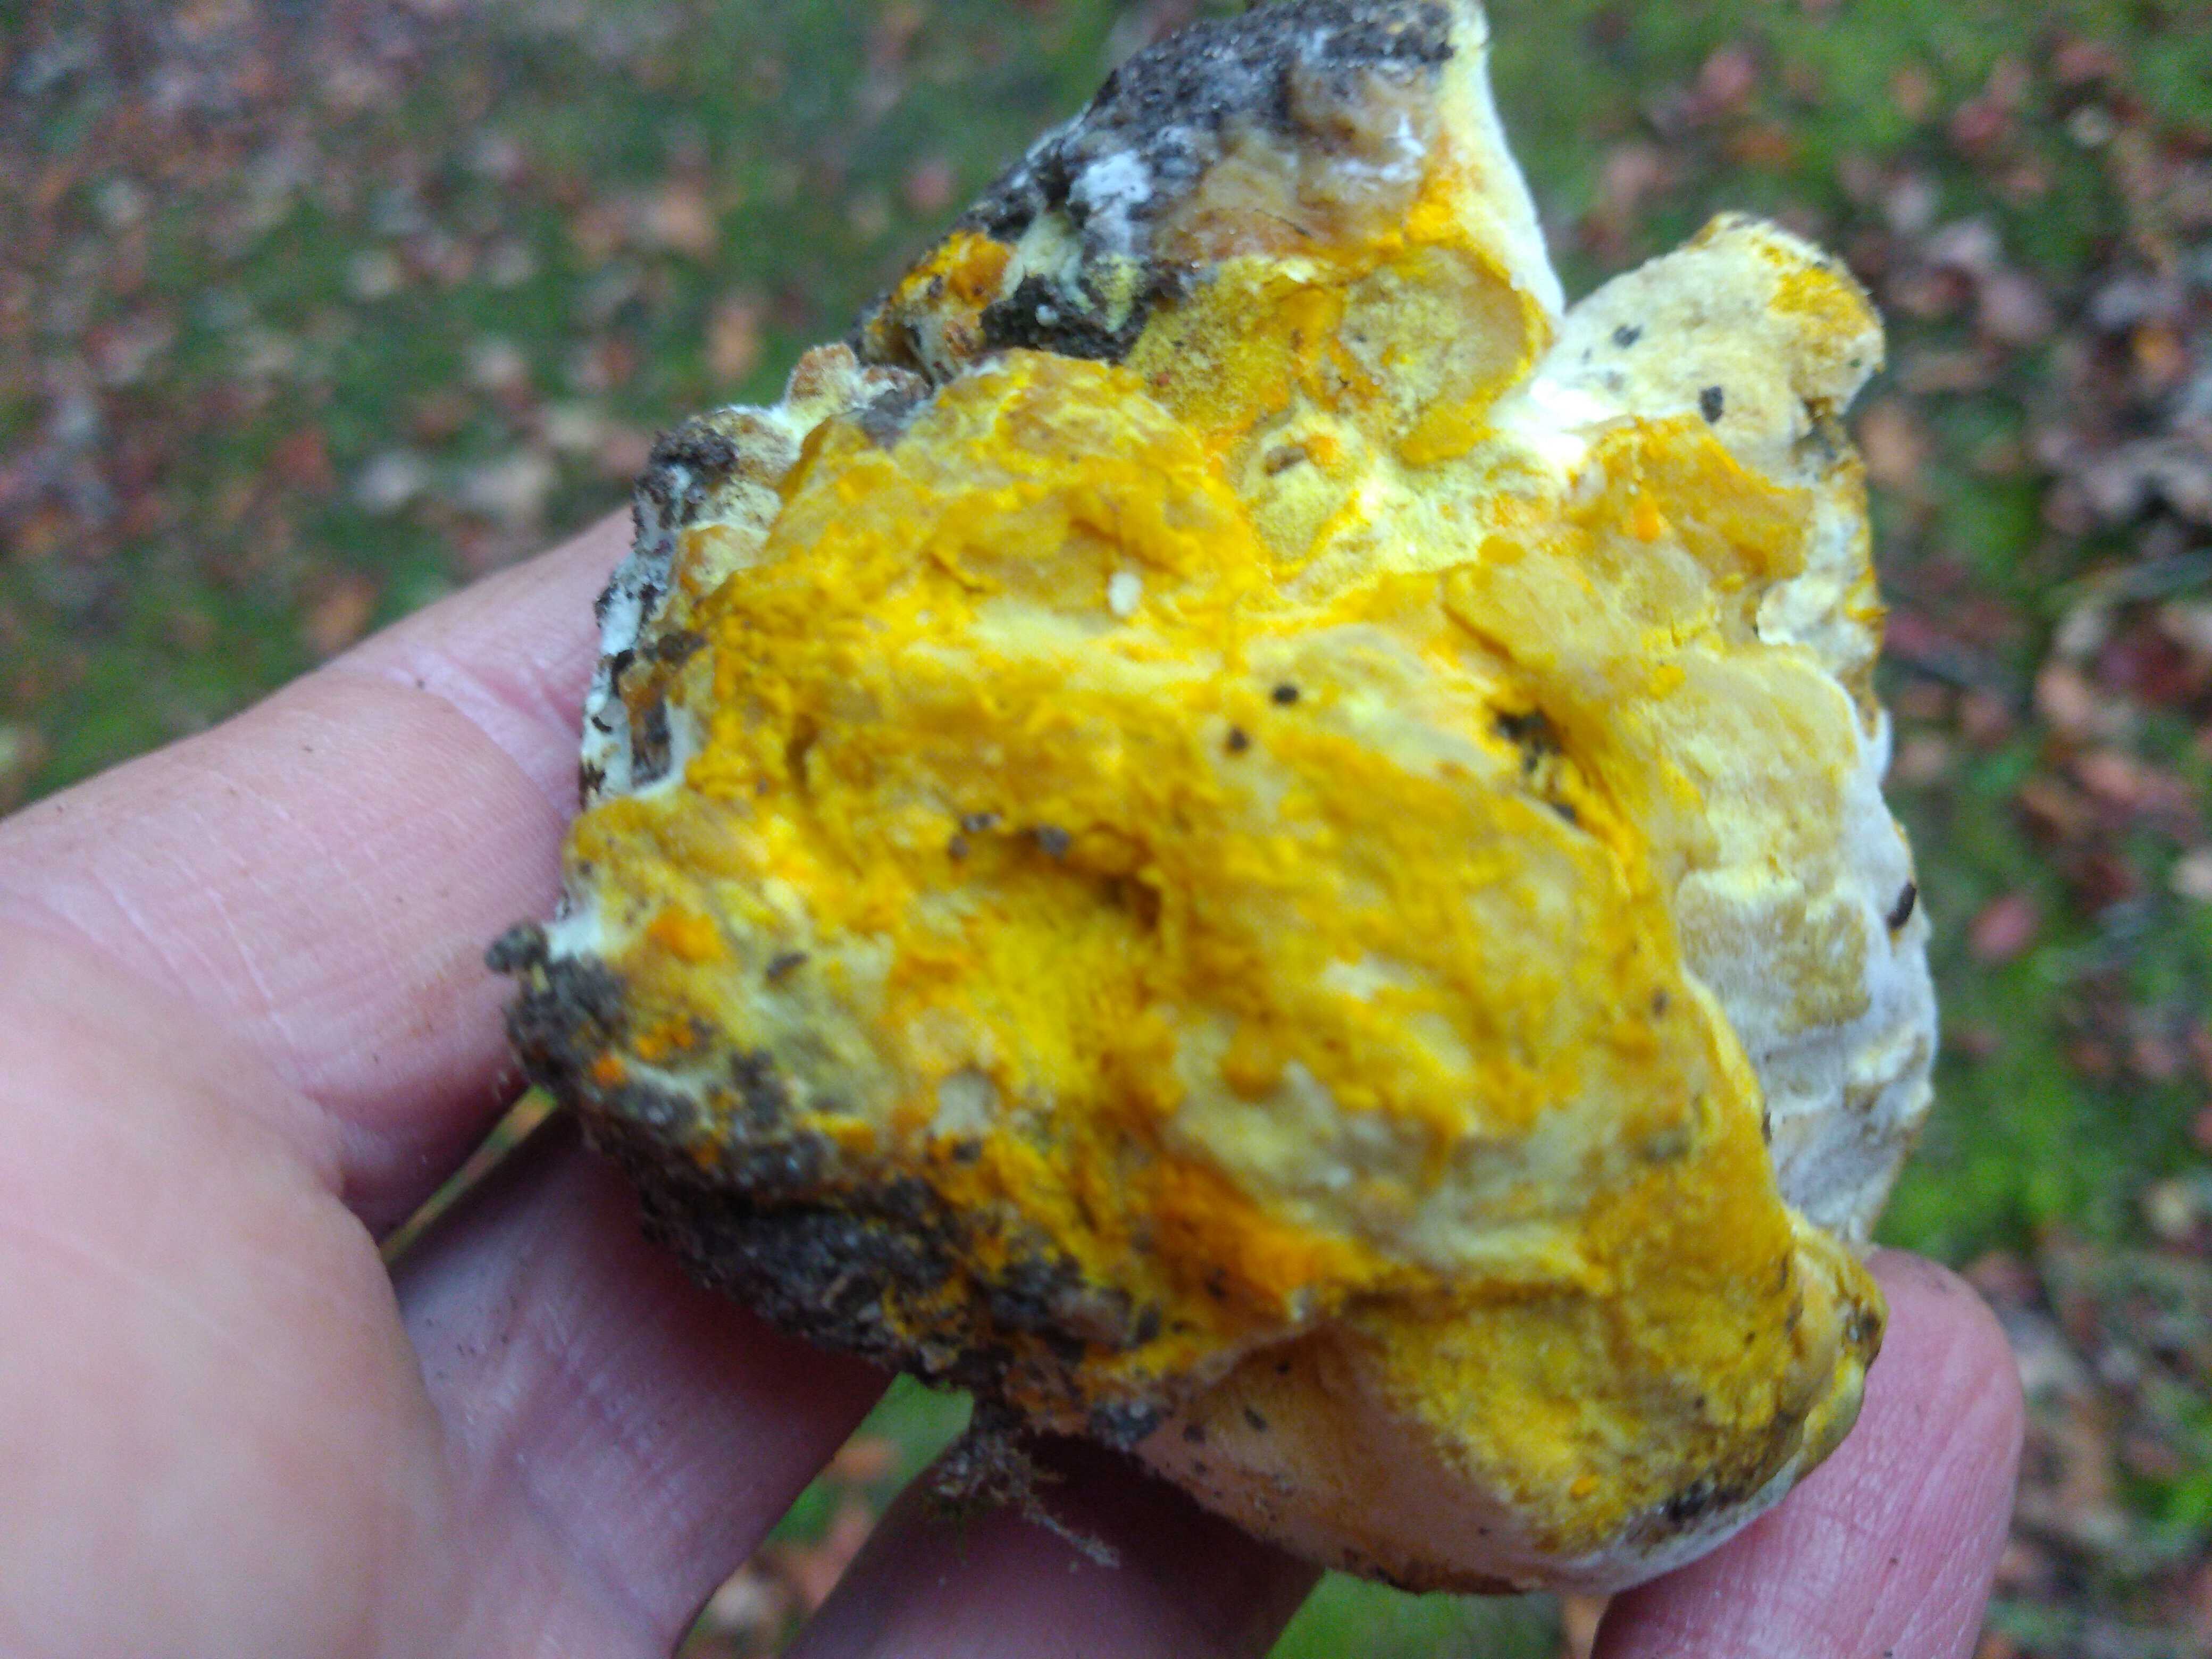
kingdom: Fungi
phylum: Ascomycota
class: Sordariomycetes
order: Hypocreales
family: Hypocreaceae
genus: Hypomyces
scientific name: Hypomyces
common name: snylteskorpe
